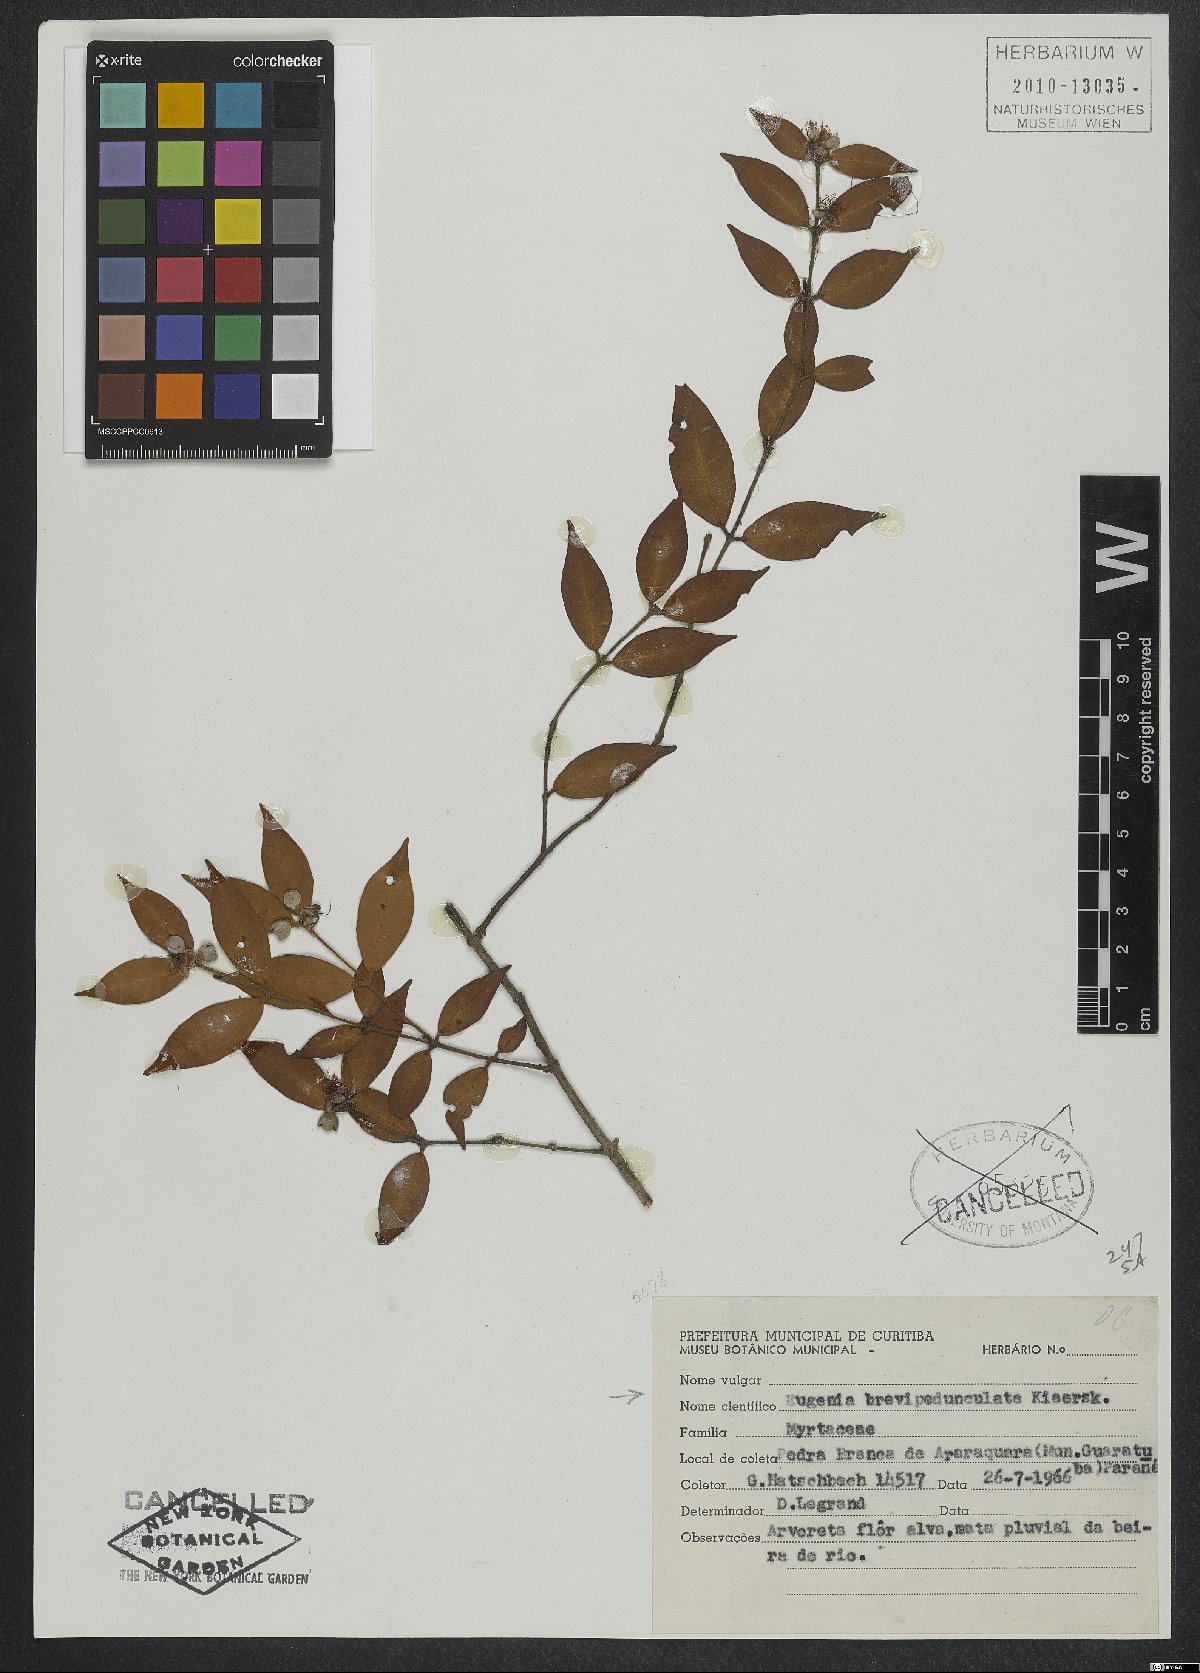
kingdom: Plantae
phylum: Tracheophyta
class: Magnoliopsida
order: Myrtales
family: Myrtaceae
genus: Eugenia
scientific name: Eugenia brevipedunculata
